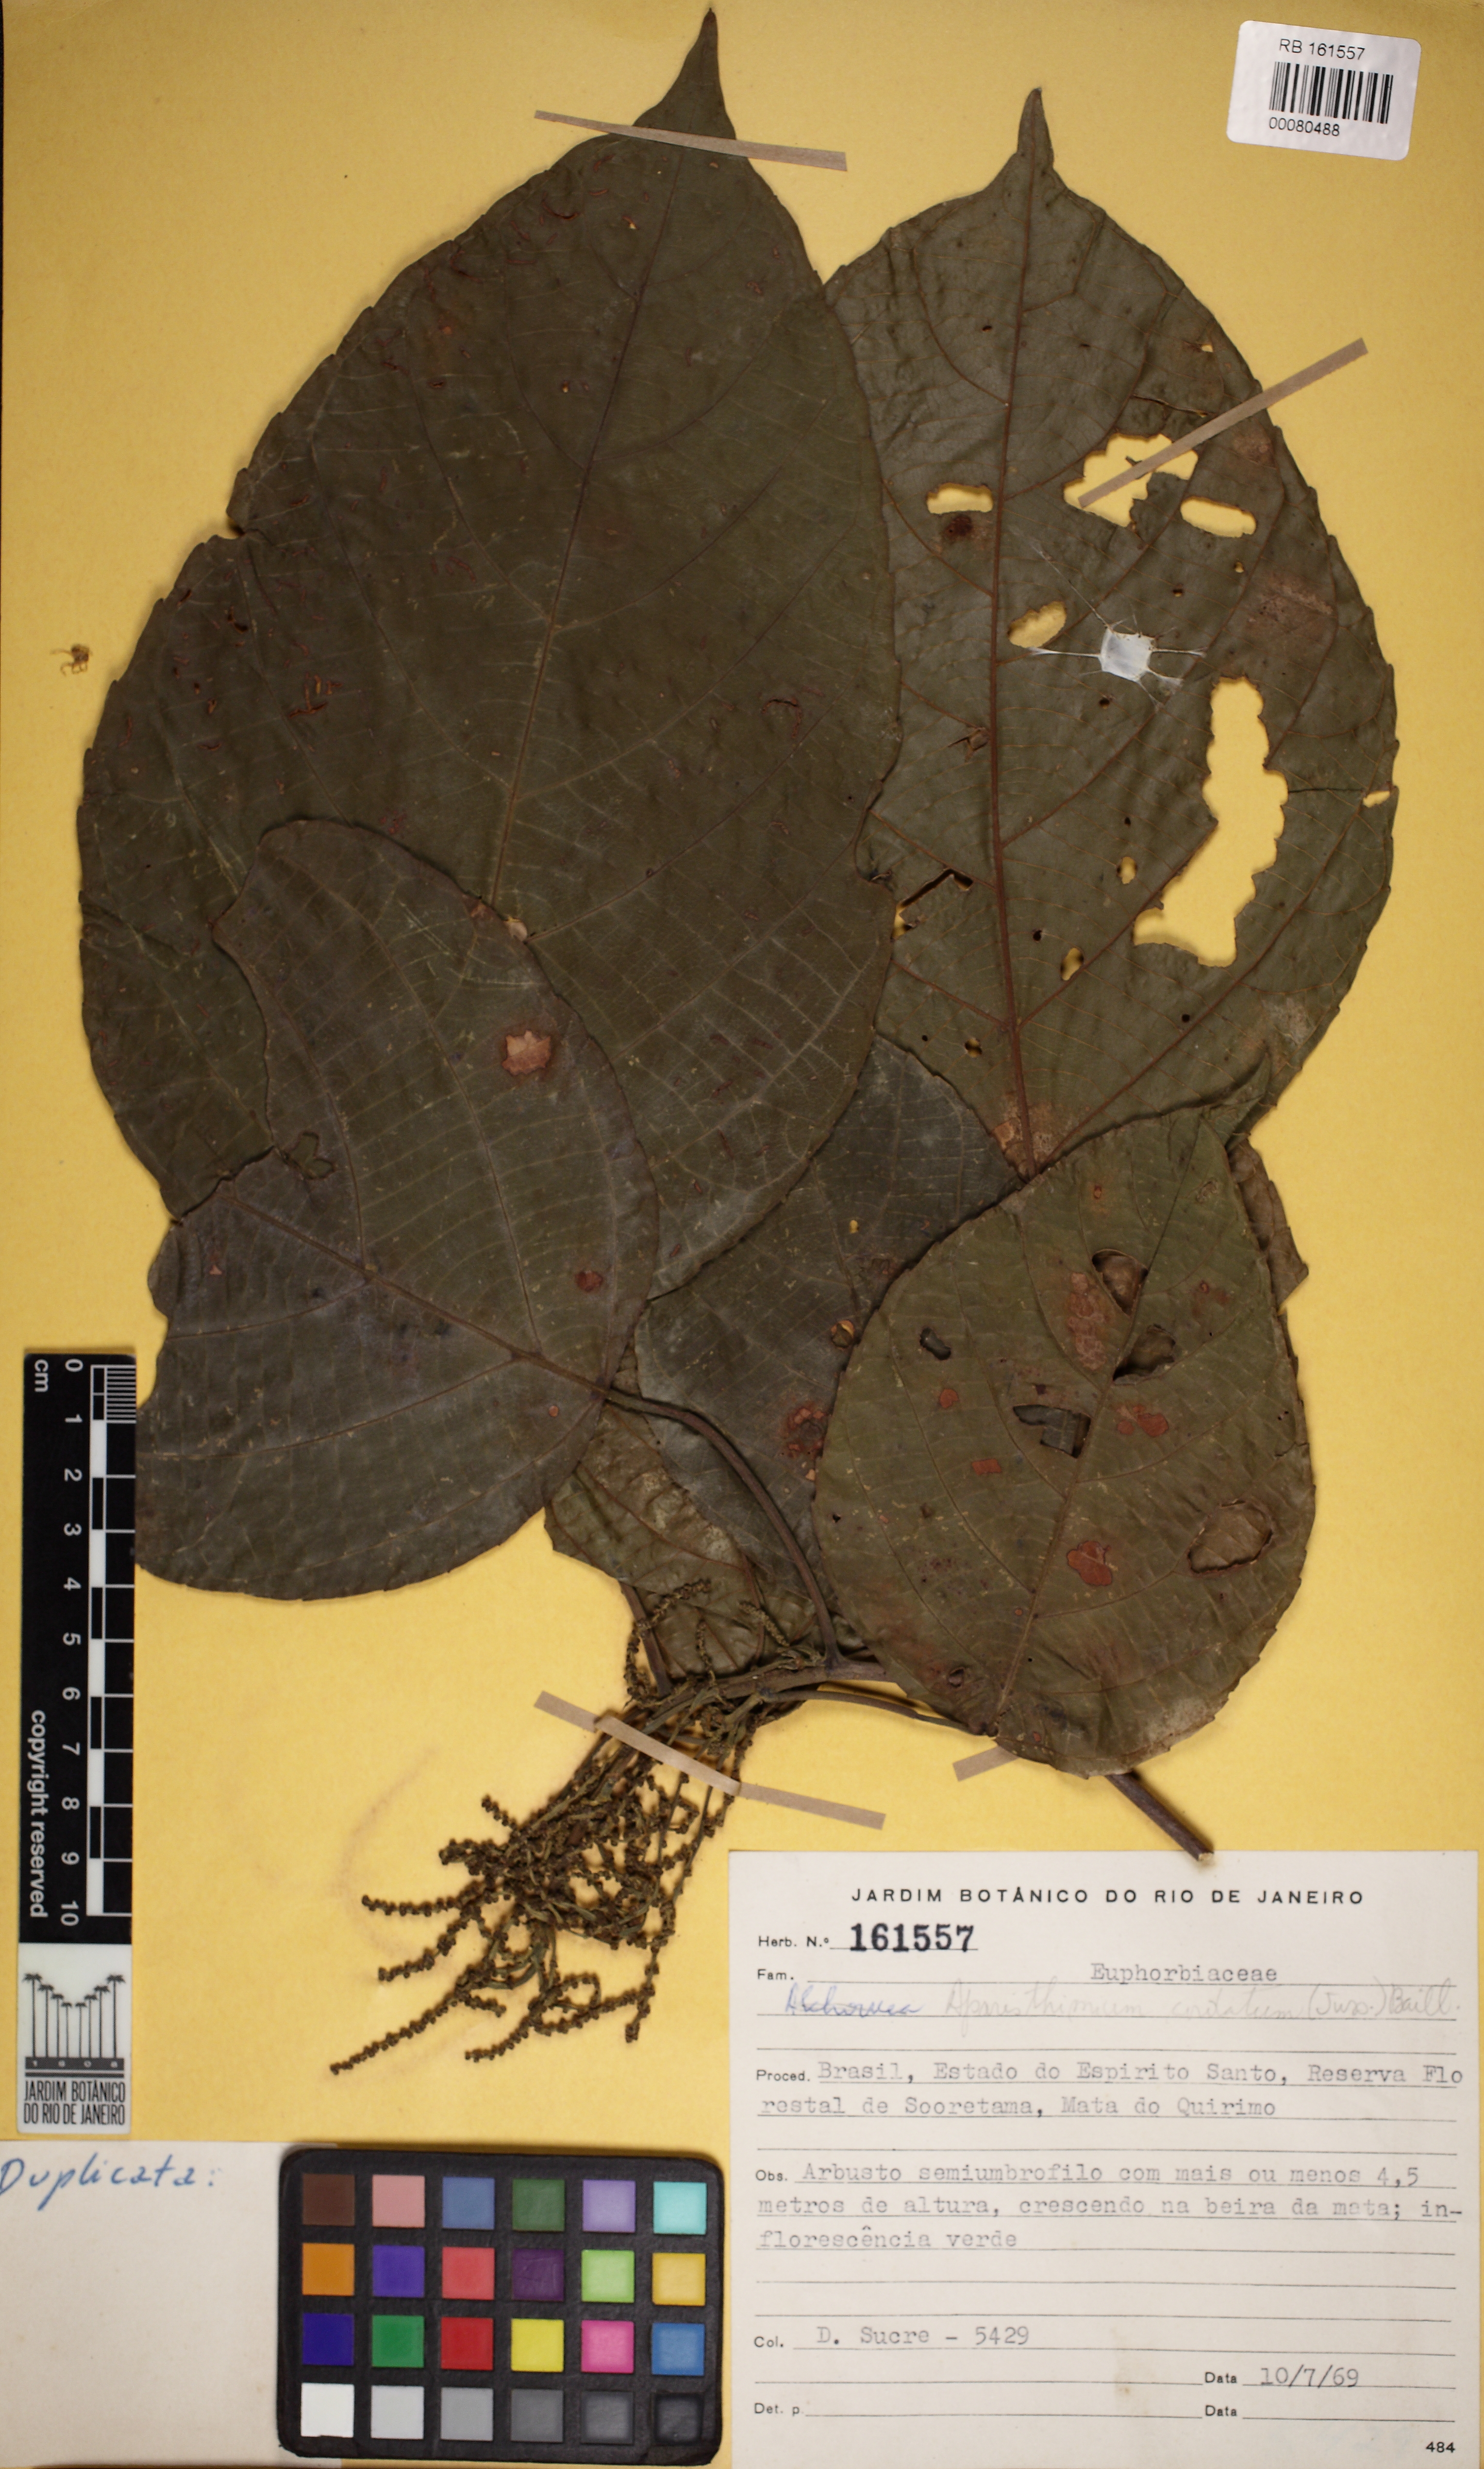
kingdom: Plantae
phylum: Tracheophyta
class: Magnoliopsida
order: Malpighiales
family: Euphorbiaceae
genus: Aparisthmium
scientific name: Aparisthmium cordatum
